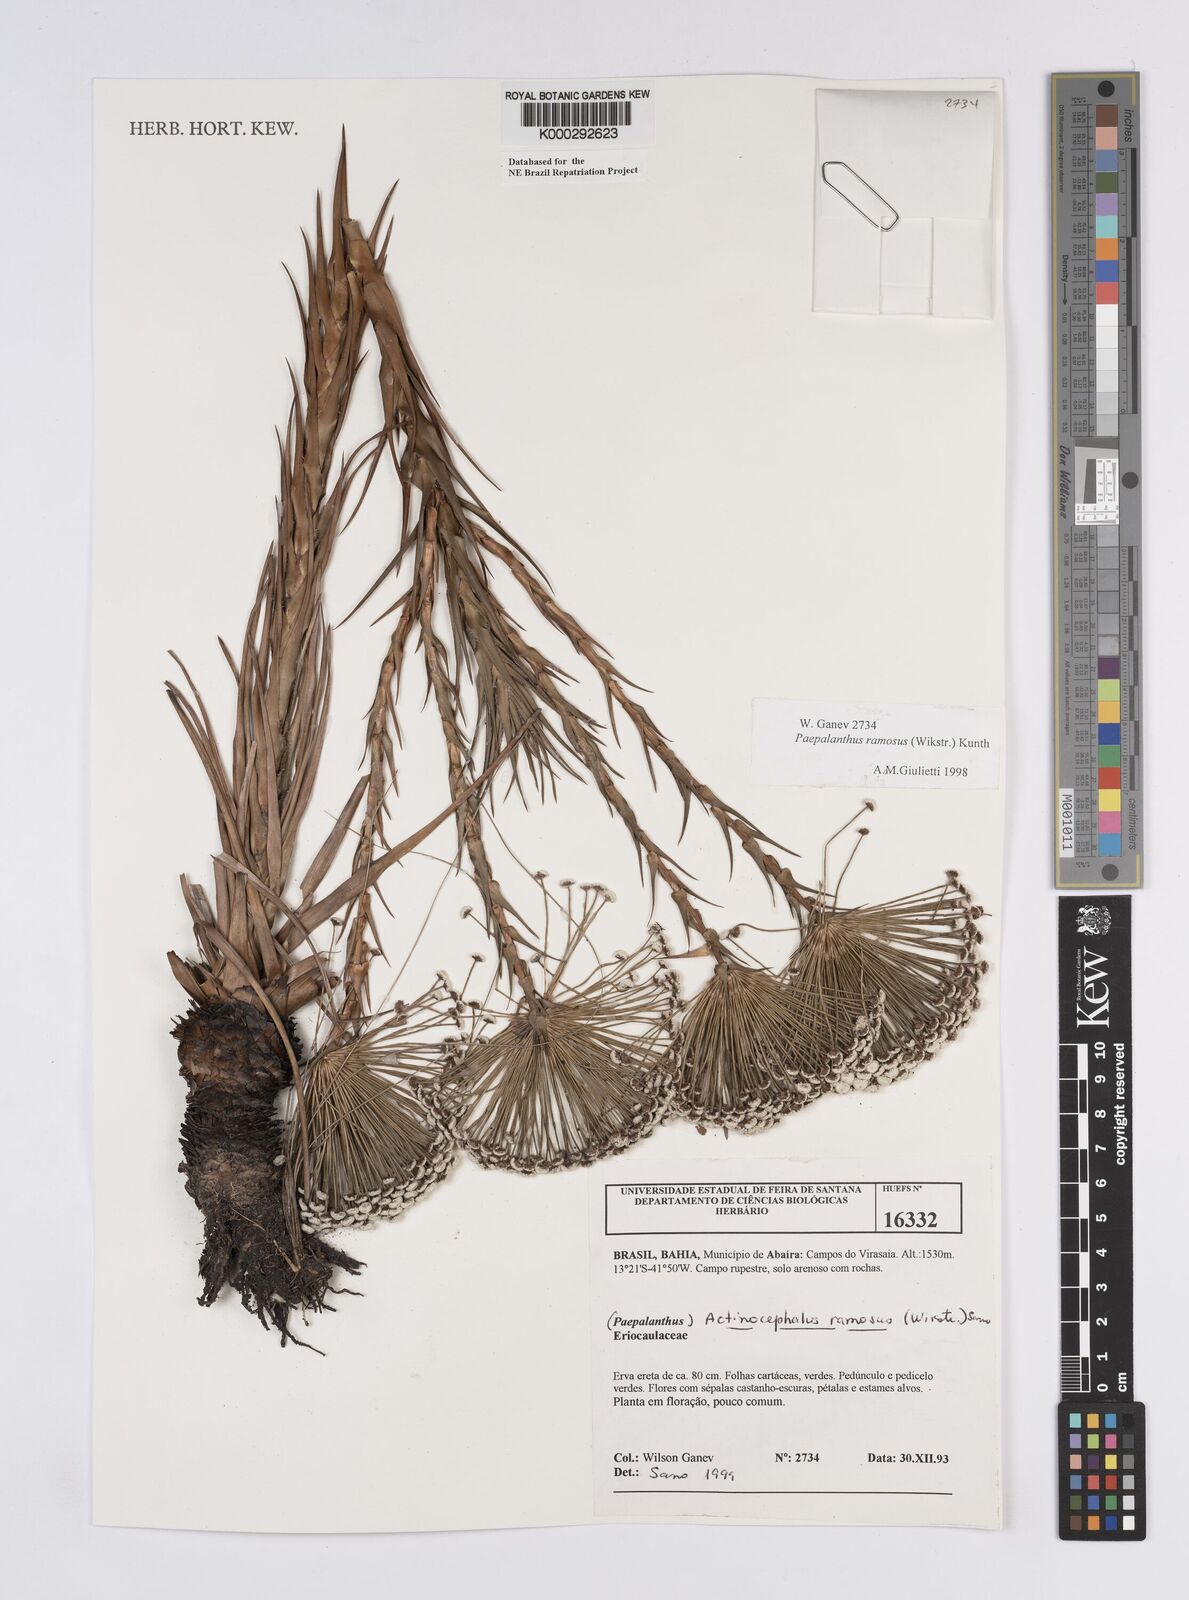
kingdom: Plantae
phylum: Tracheophyta
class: Liliopsida
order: Poales
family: Eriocaulaceae
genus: Paepalanthus
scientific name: Paepalanthus ramosus
